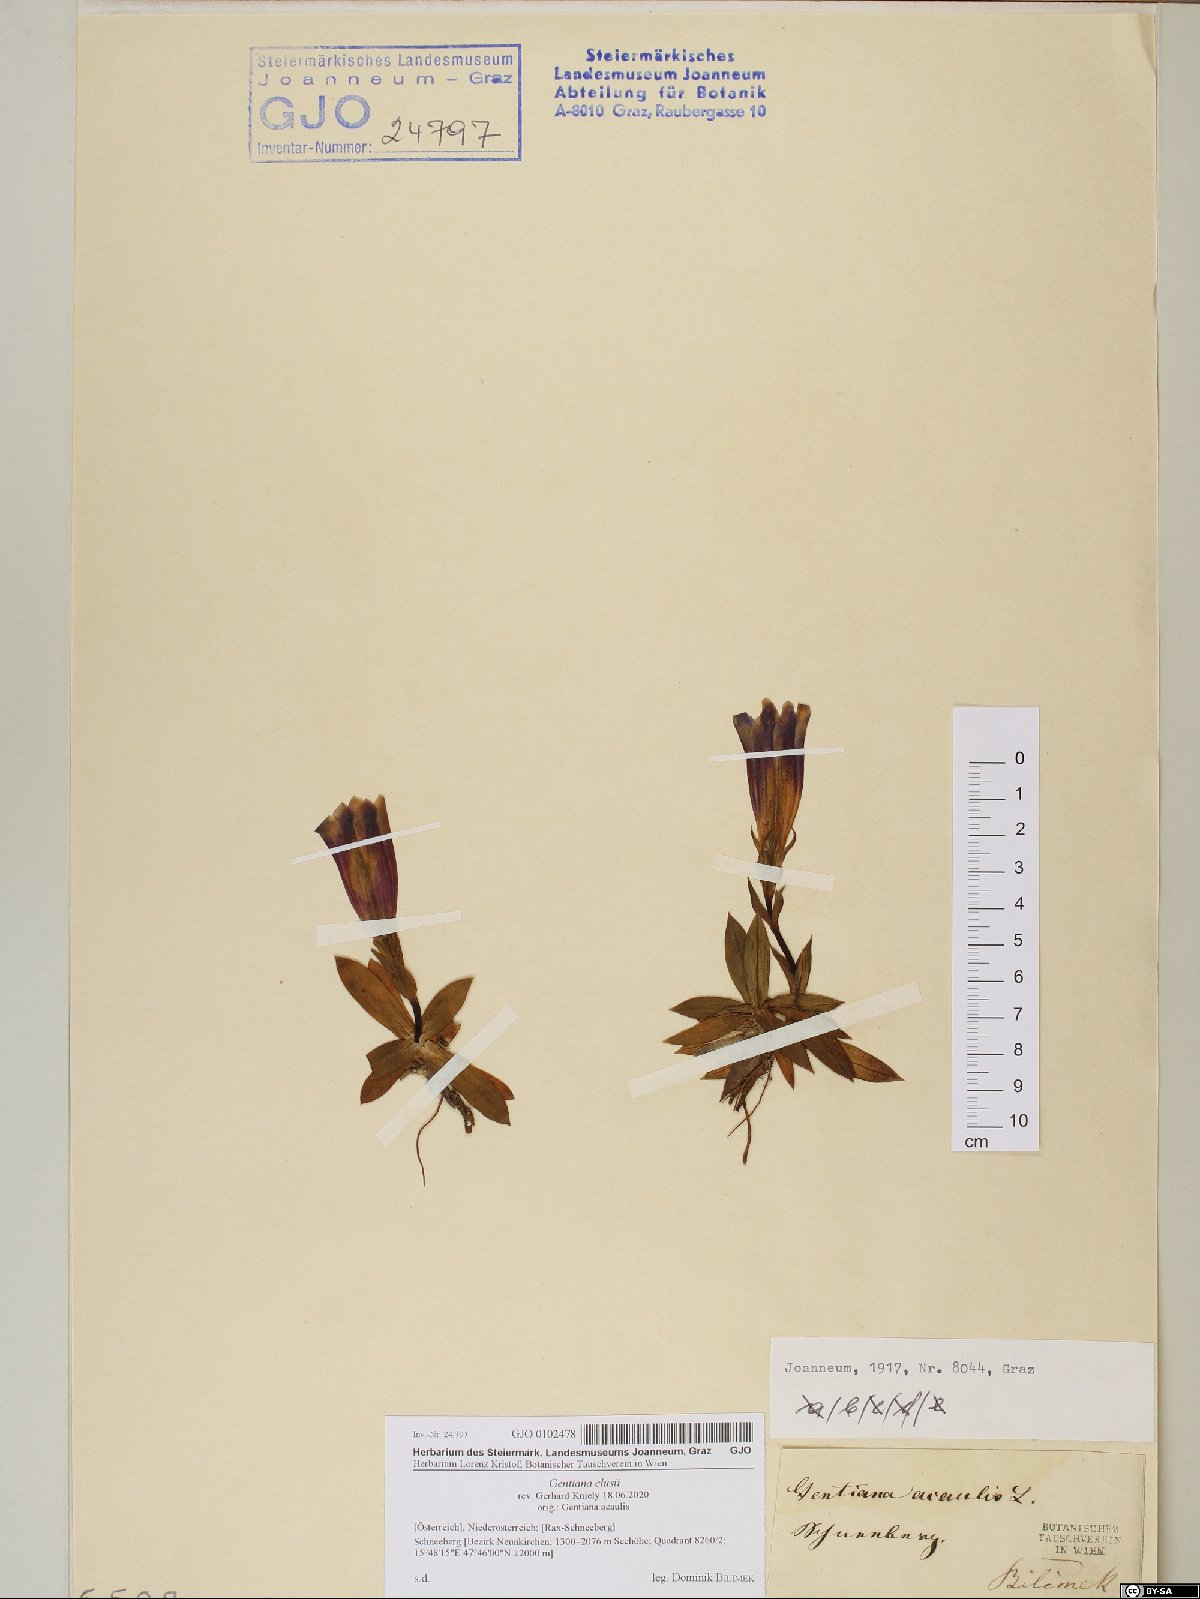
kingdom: Plantae
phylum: Tracheophyta
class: Magnoliopsida
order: Gentianales
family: Gentianaceae
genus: Gentiana
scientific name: Gentiana clusii
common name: Trumpet gentian
